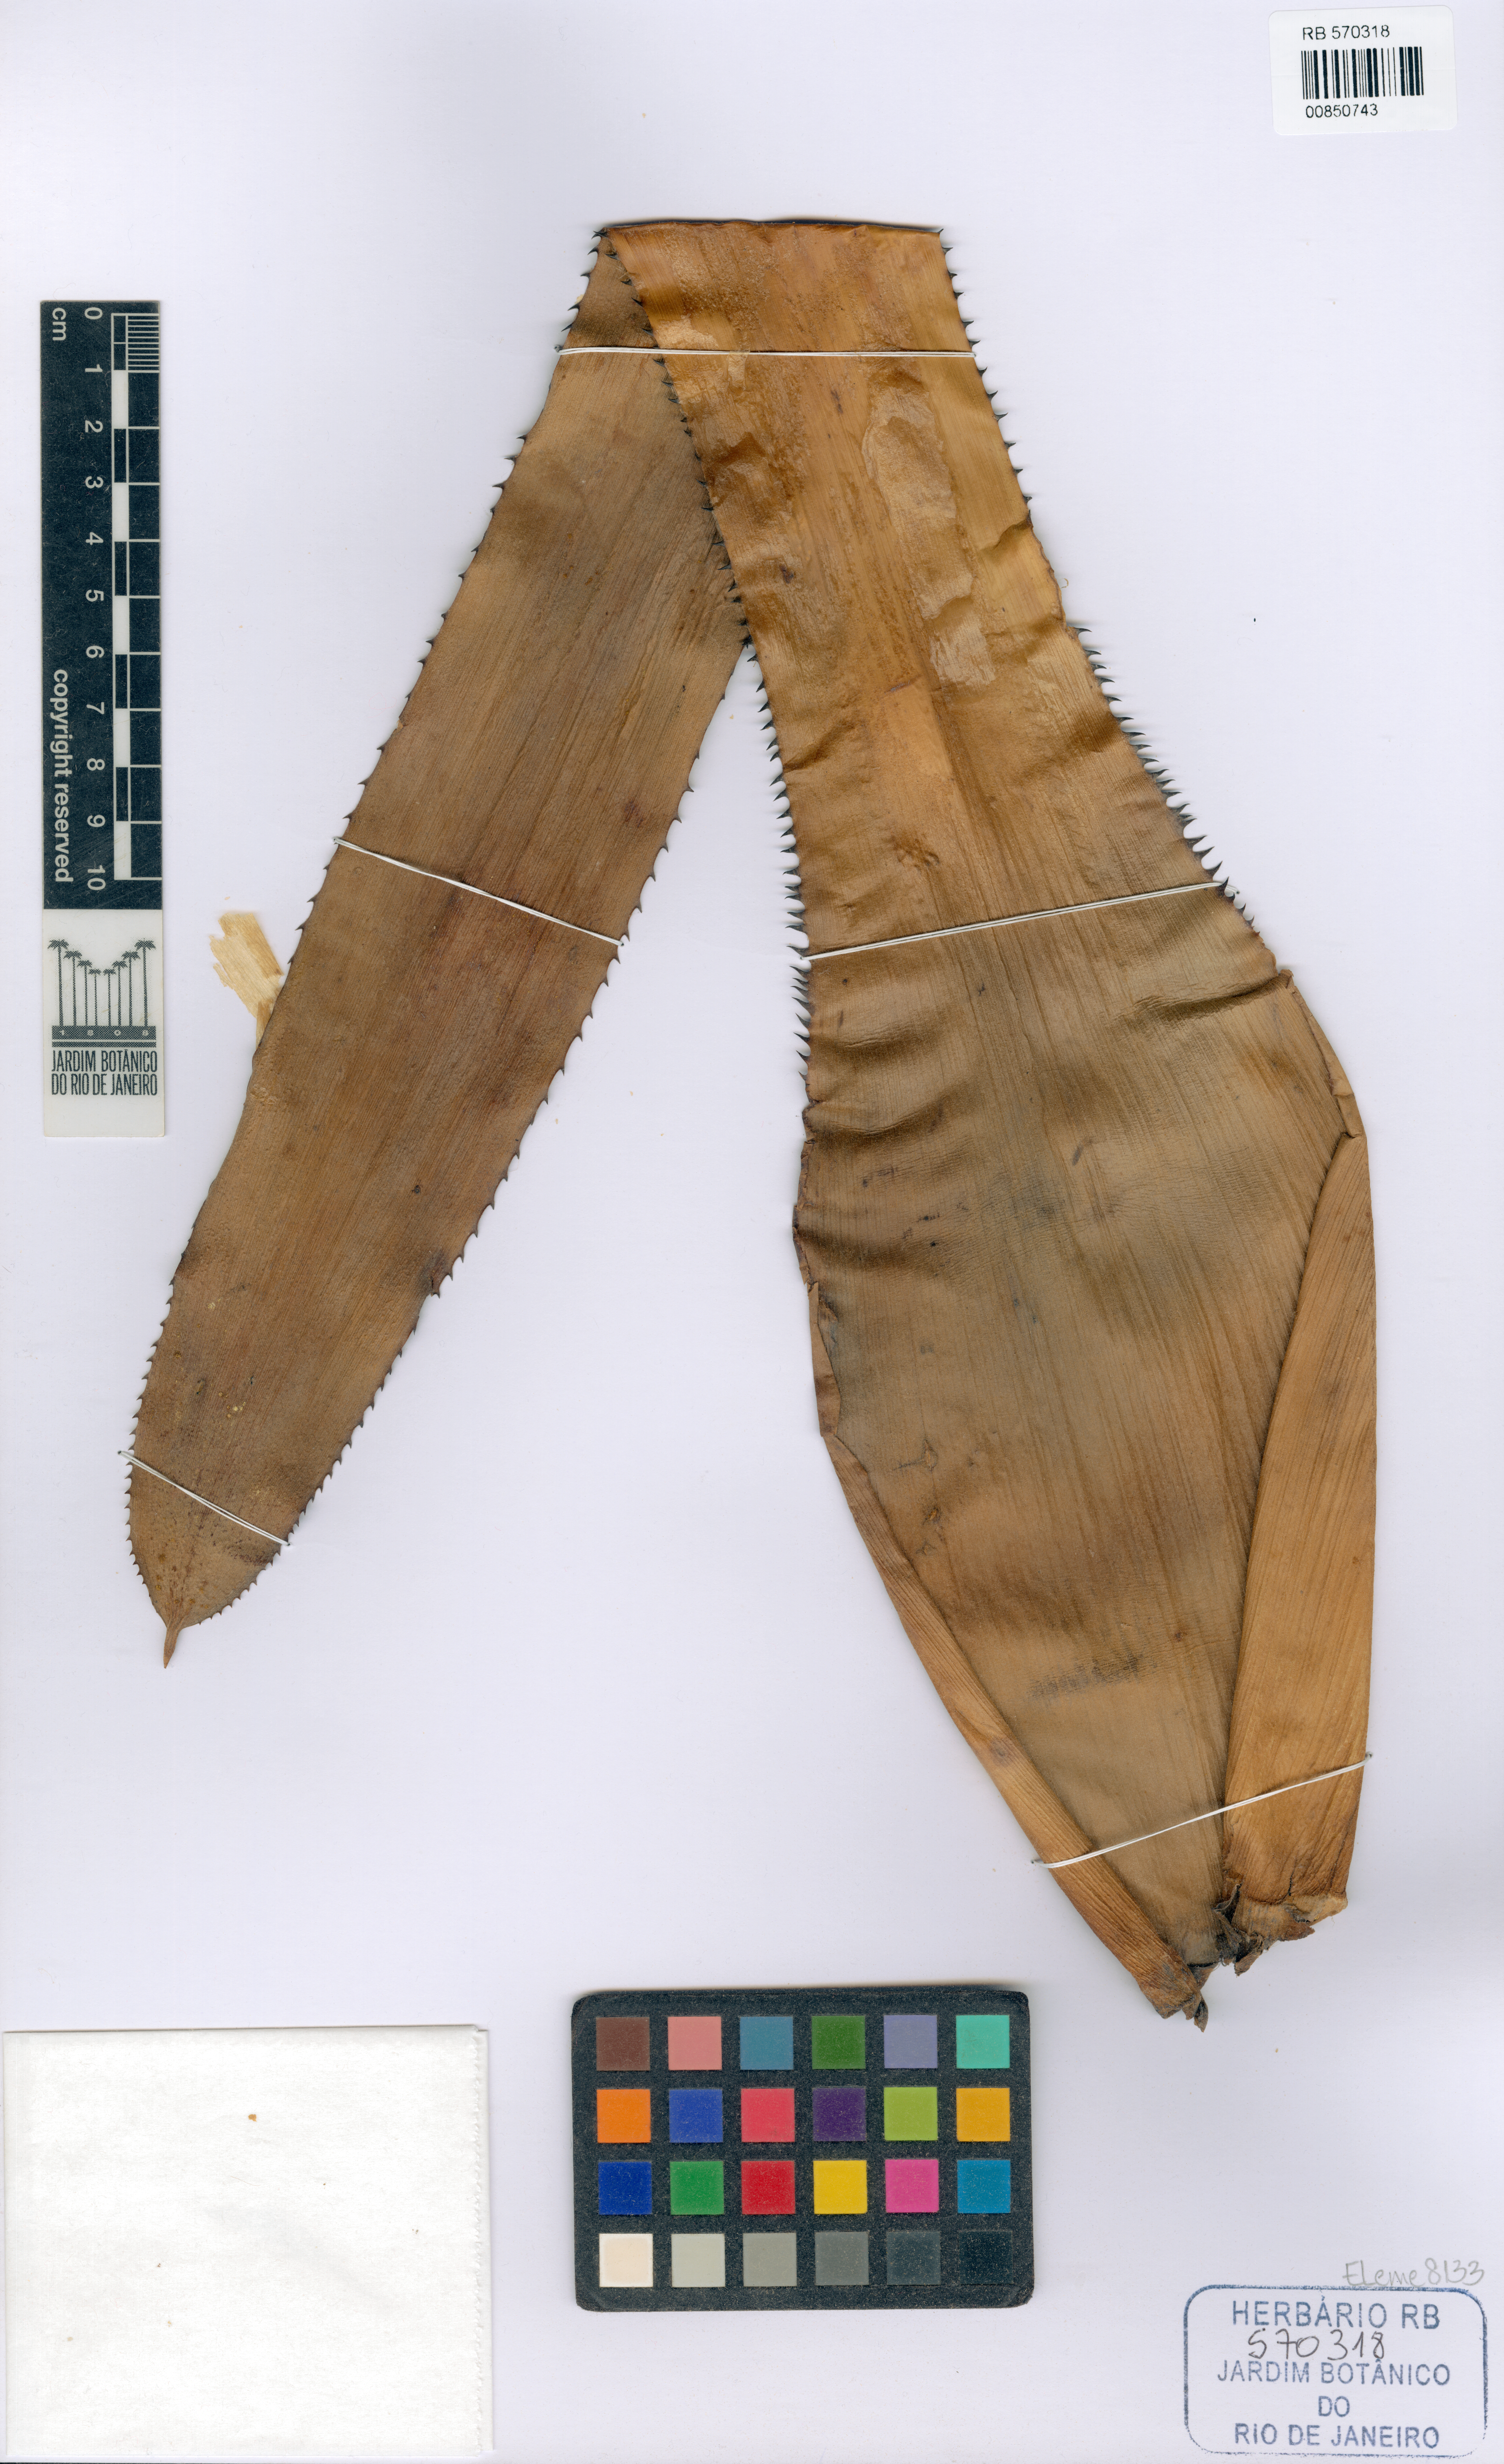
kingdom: Plantae
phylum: Tracheophyta
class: Liliopsida
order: Poales
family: Bromeliaceae
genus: Aechmea
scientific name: Aechmea aiuruocensis
